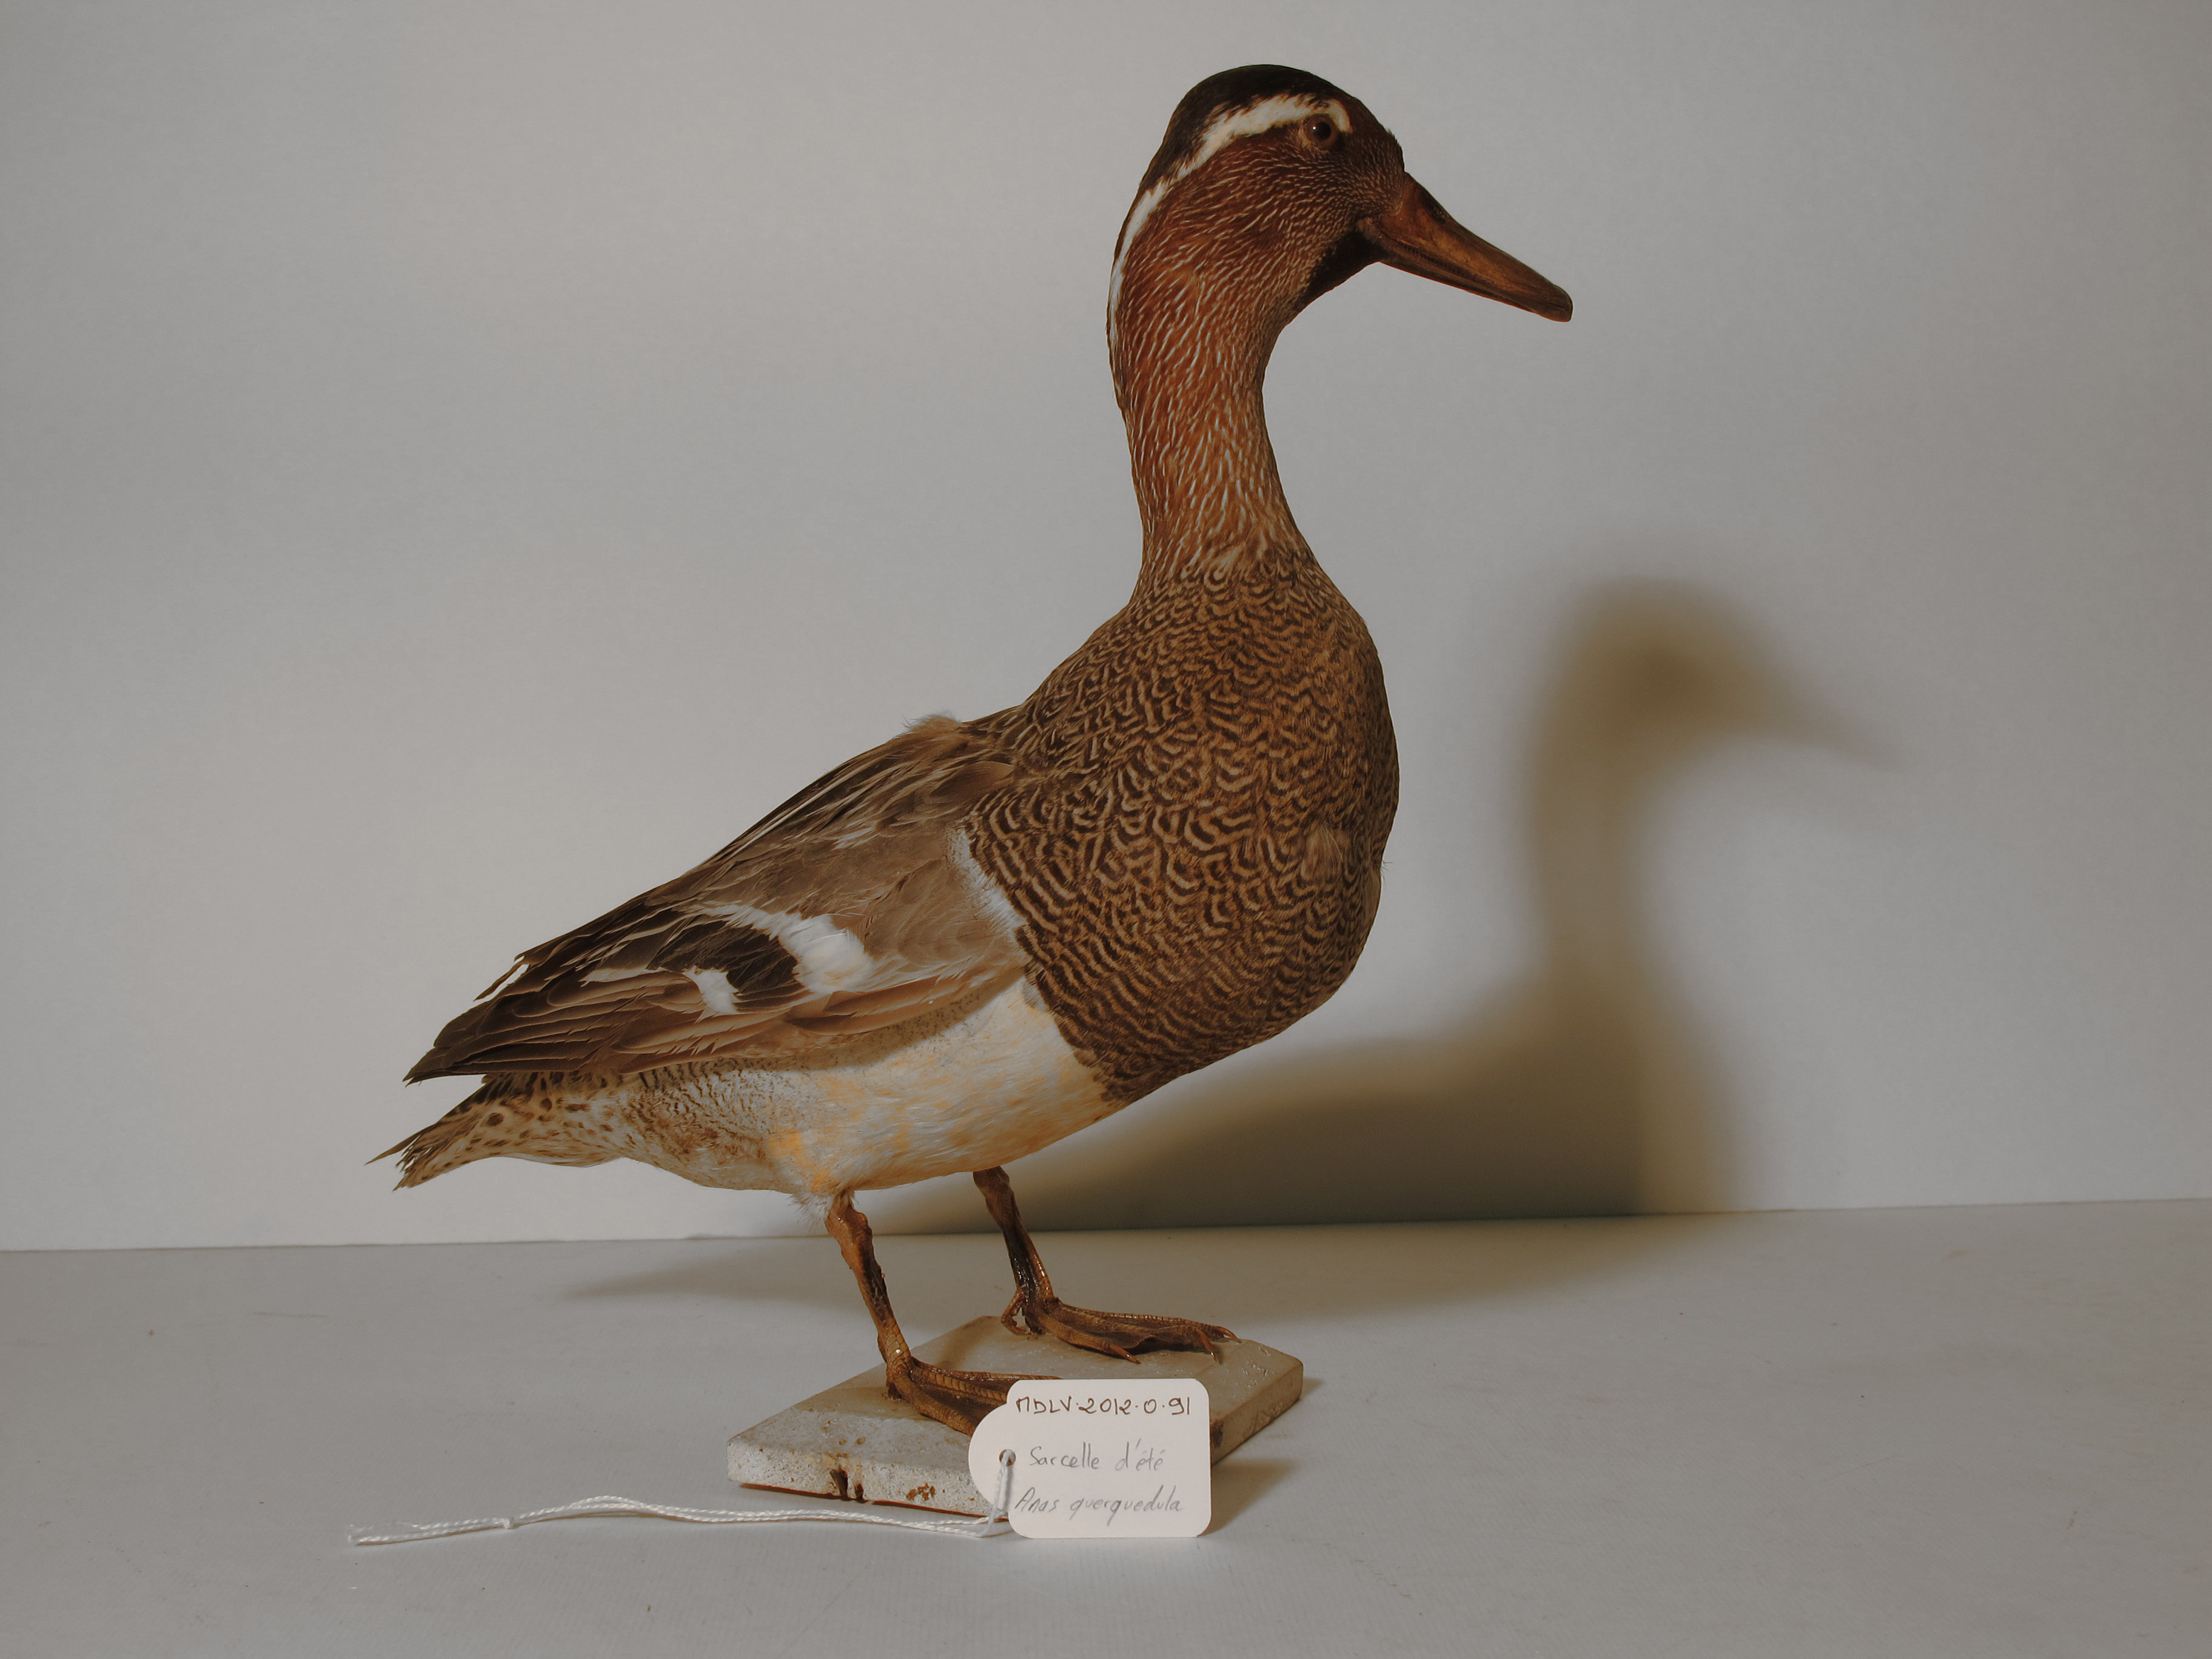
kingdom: Animalia
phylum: Chordata
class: Aves
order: Anseriformes
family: Anatidae
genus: Spatula
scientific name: Spatula querquedula
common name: Garganey
